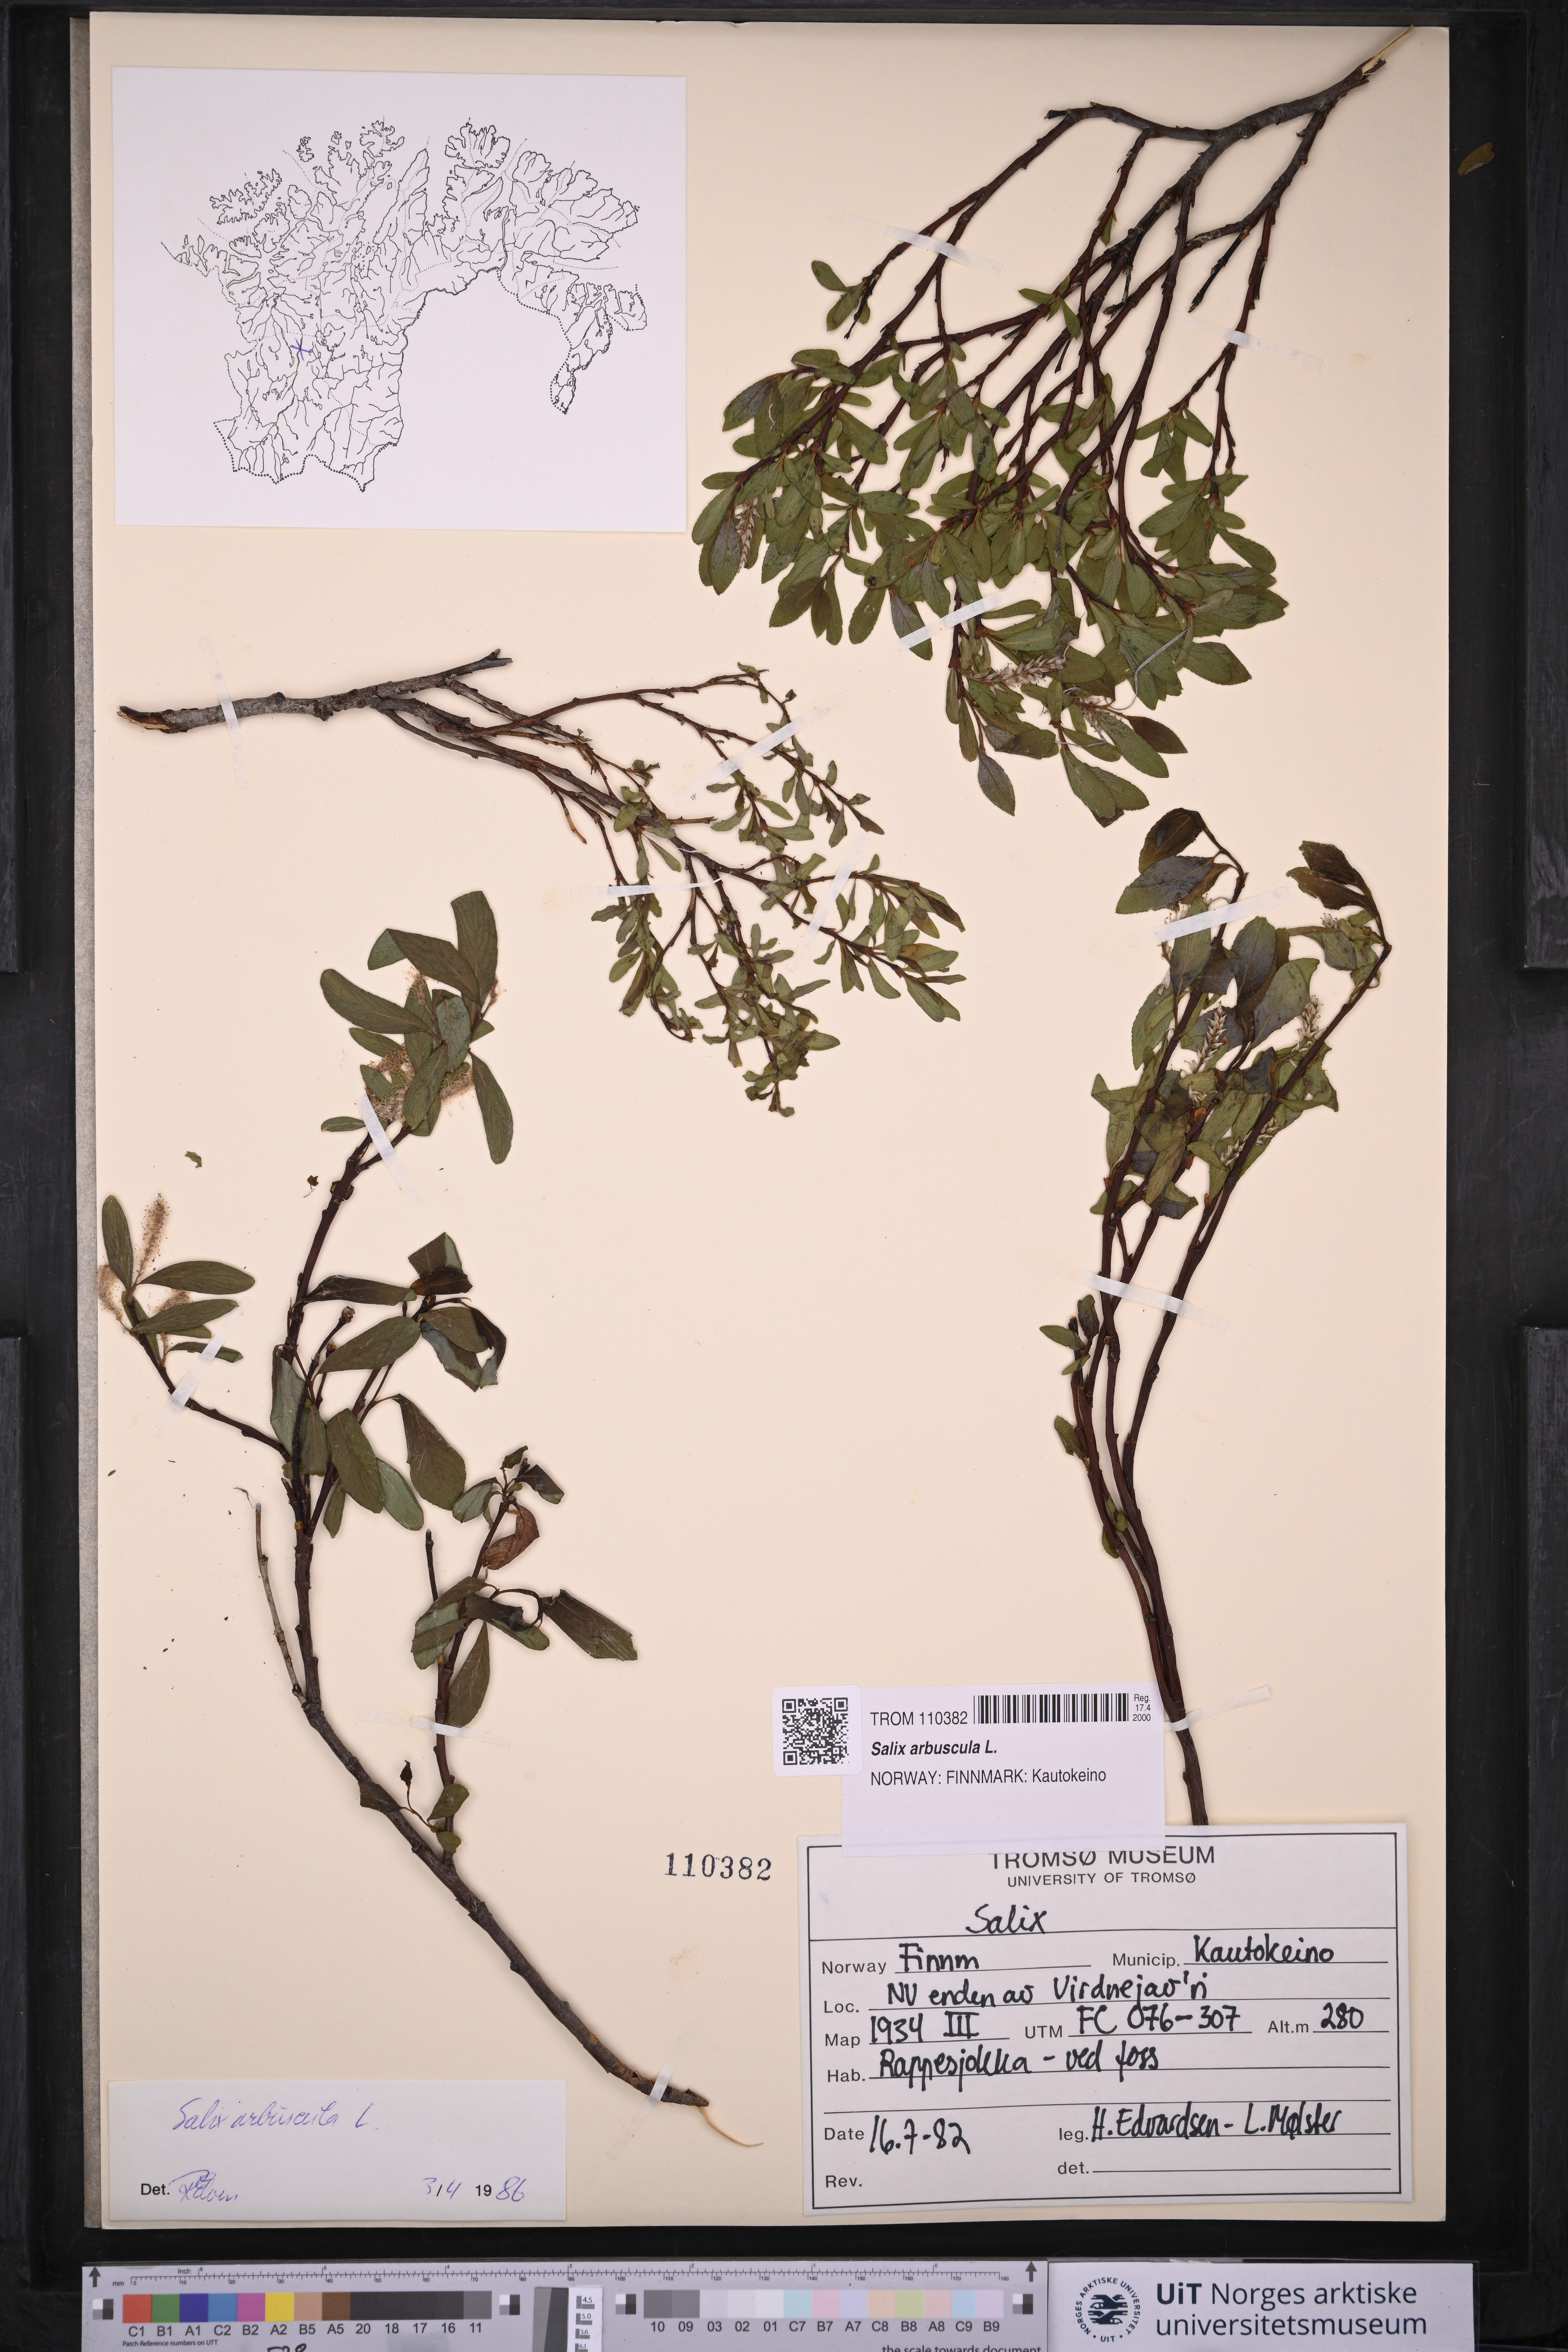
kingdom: Plantae
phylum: Tracheophyta
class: Magnoliopsida
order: Malpighiales
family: Salicaceae
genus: Salix
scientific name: Salix arbuscula
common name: Mountain willow
